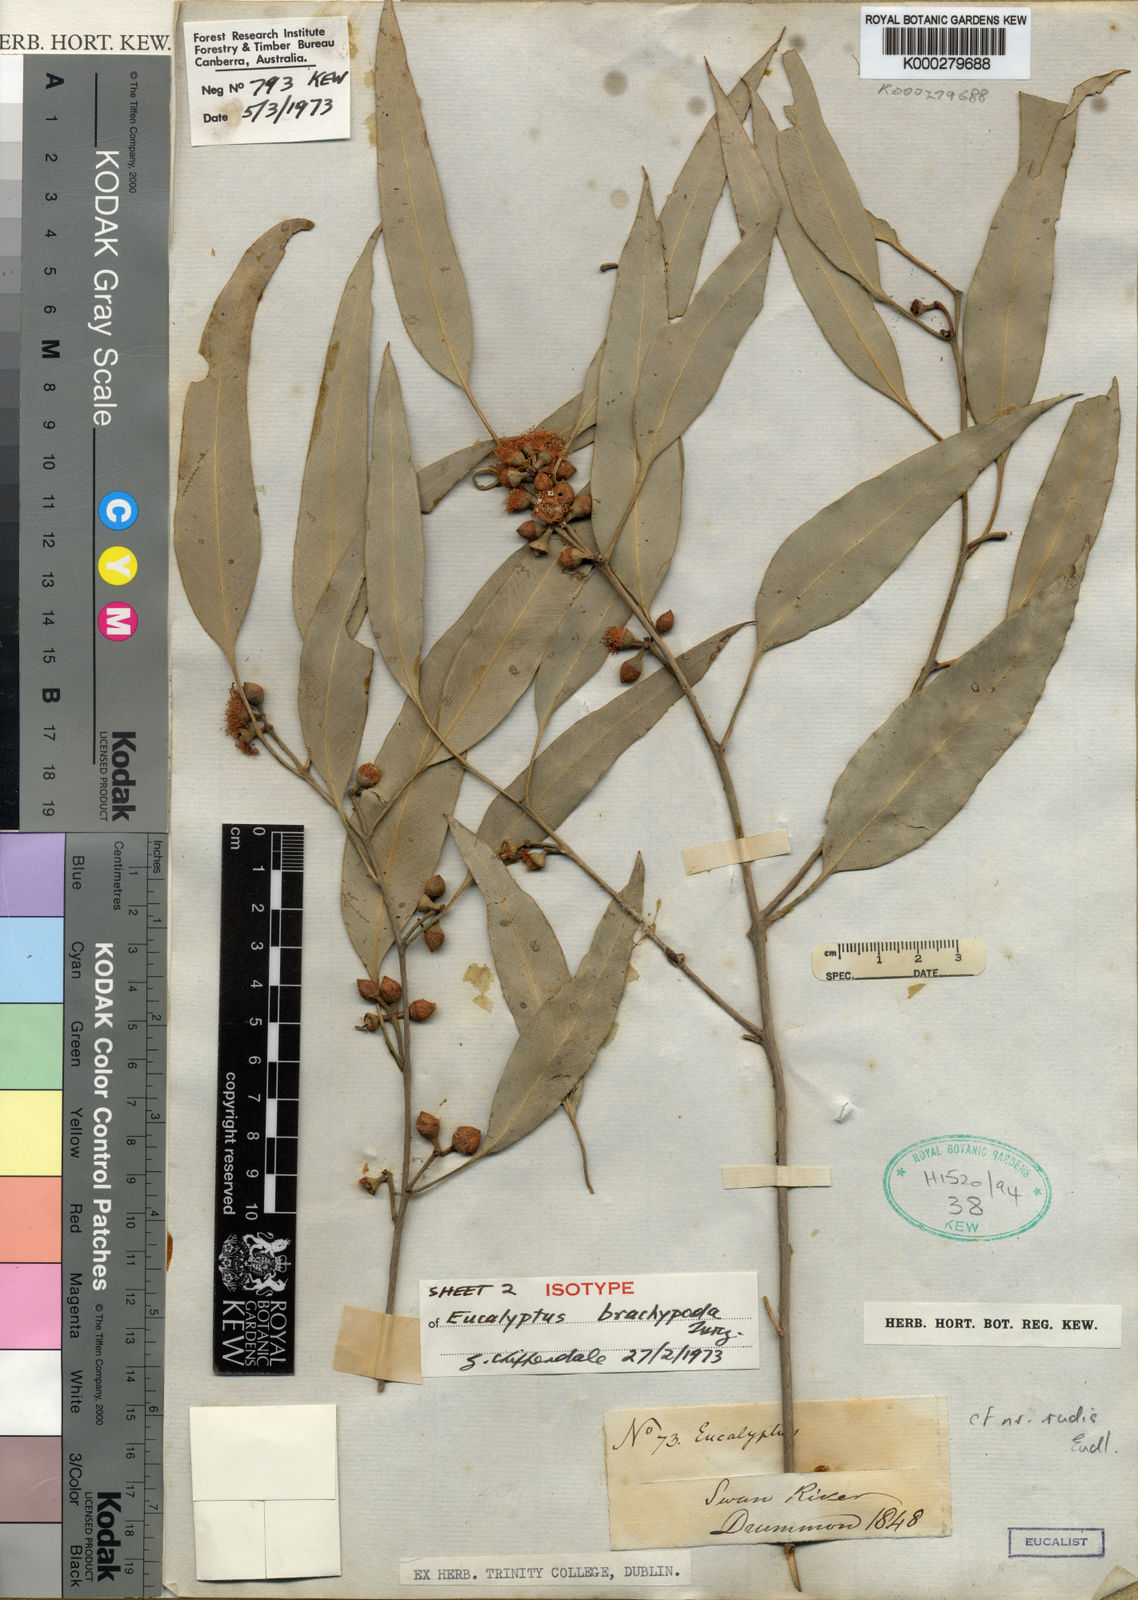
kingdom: Plantae
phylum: Tracheophyta
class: Magnoliopsida
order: Myrtales
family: Myrtaceae
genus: Eucalyptus
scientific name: Eucalyptus rudis
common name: Flooded gum
